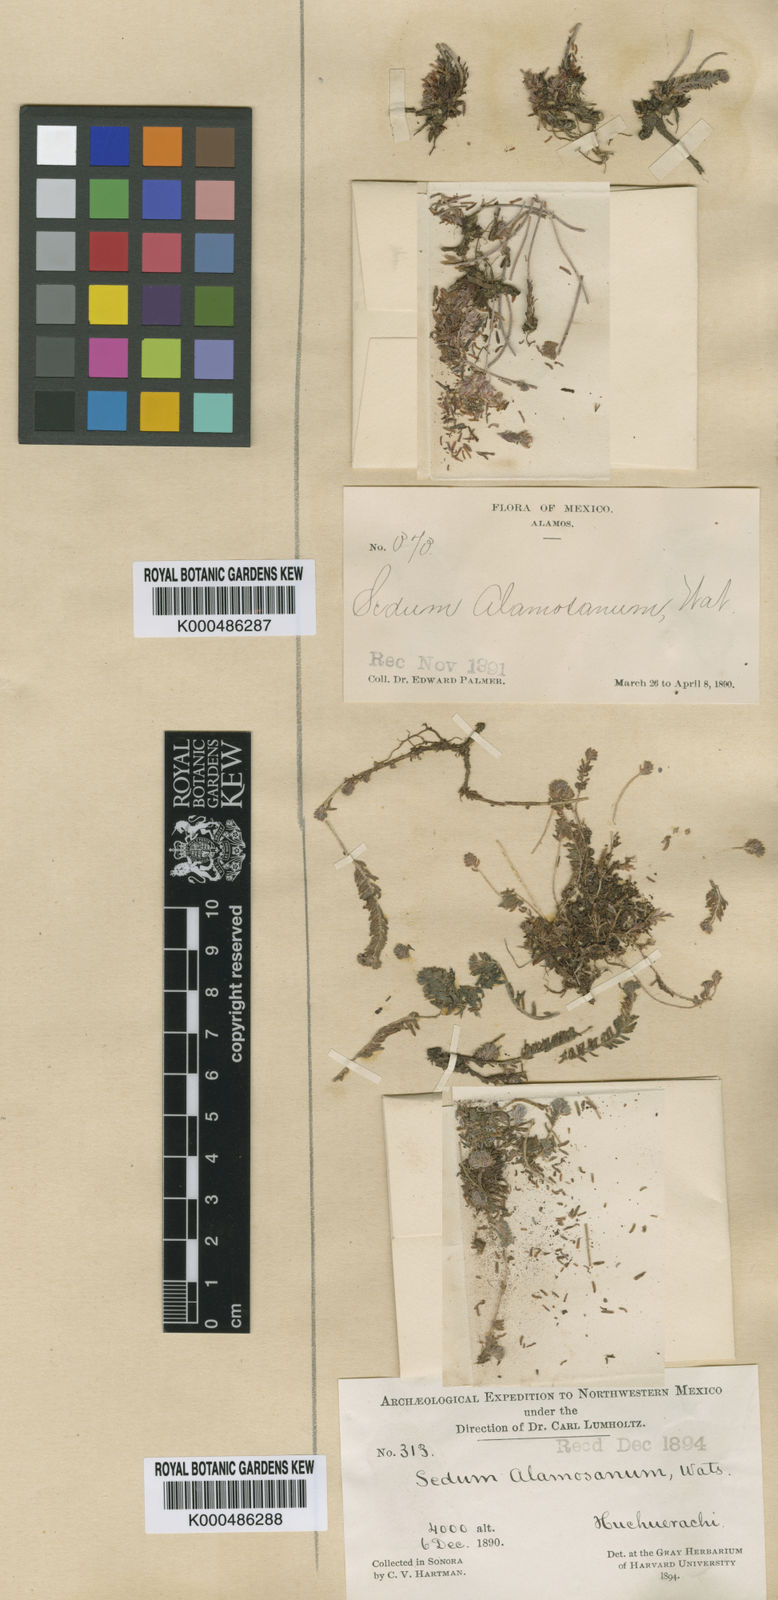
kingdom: Plantae
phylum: Tracheophyta
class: Magnoliopsida
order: Saxifragales
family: Crassulaceae
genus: Sedum
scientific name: Sedum alamosanum
